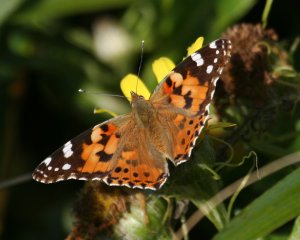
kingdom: Animalia
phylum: Arthropoda
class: Insecta
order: Lepidoptera
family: Nymphalidae
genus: Vanessa
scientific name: Vanessa cardui
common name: Painted Lady
